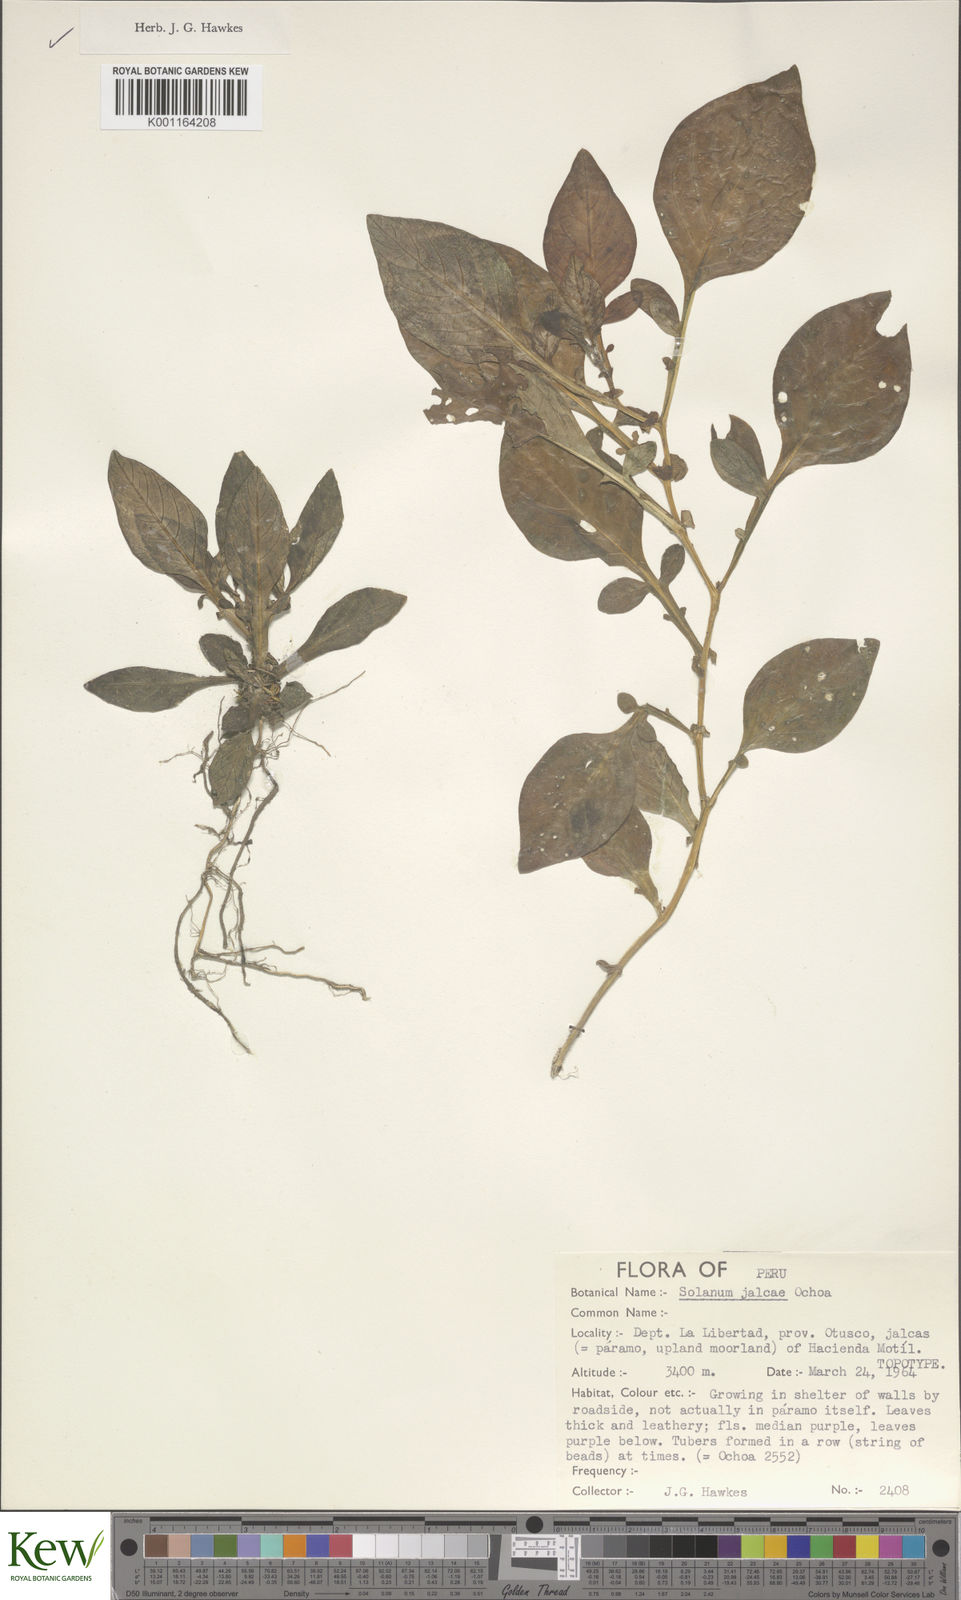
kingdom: Plantae
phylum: Tracheophyta
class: Magnoliopsida
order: Solanales
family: Solanaceae
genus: Solanum
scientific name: Solanum chomatophilum
